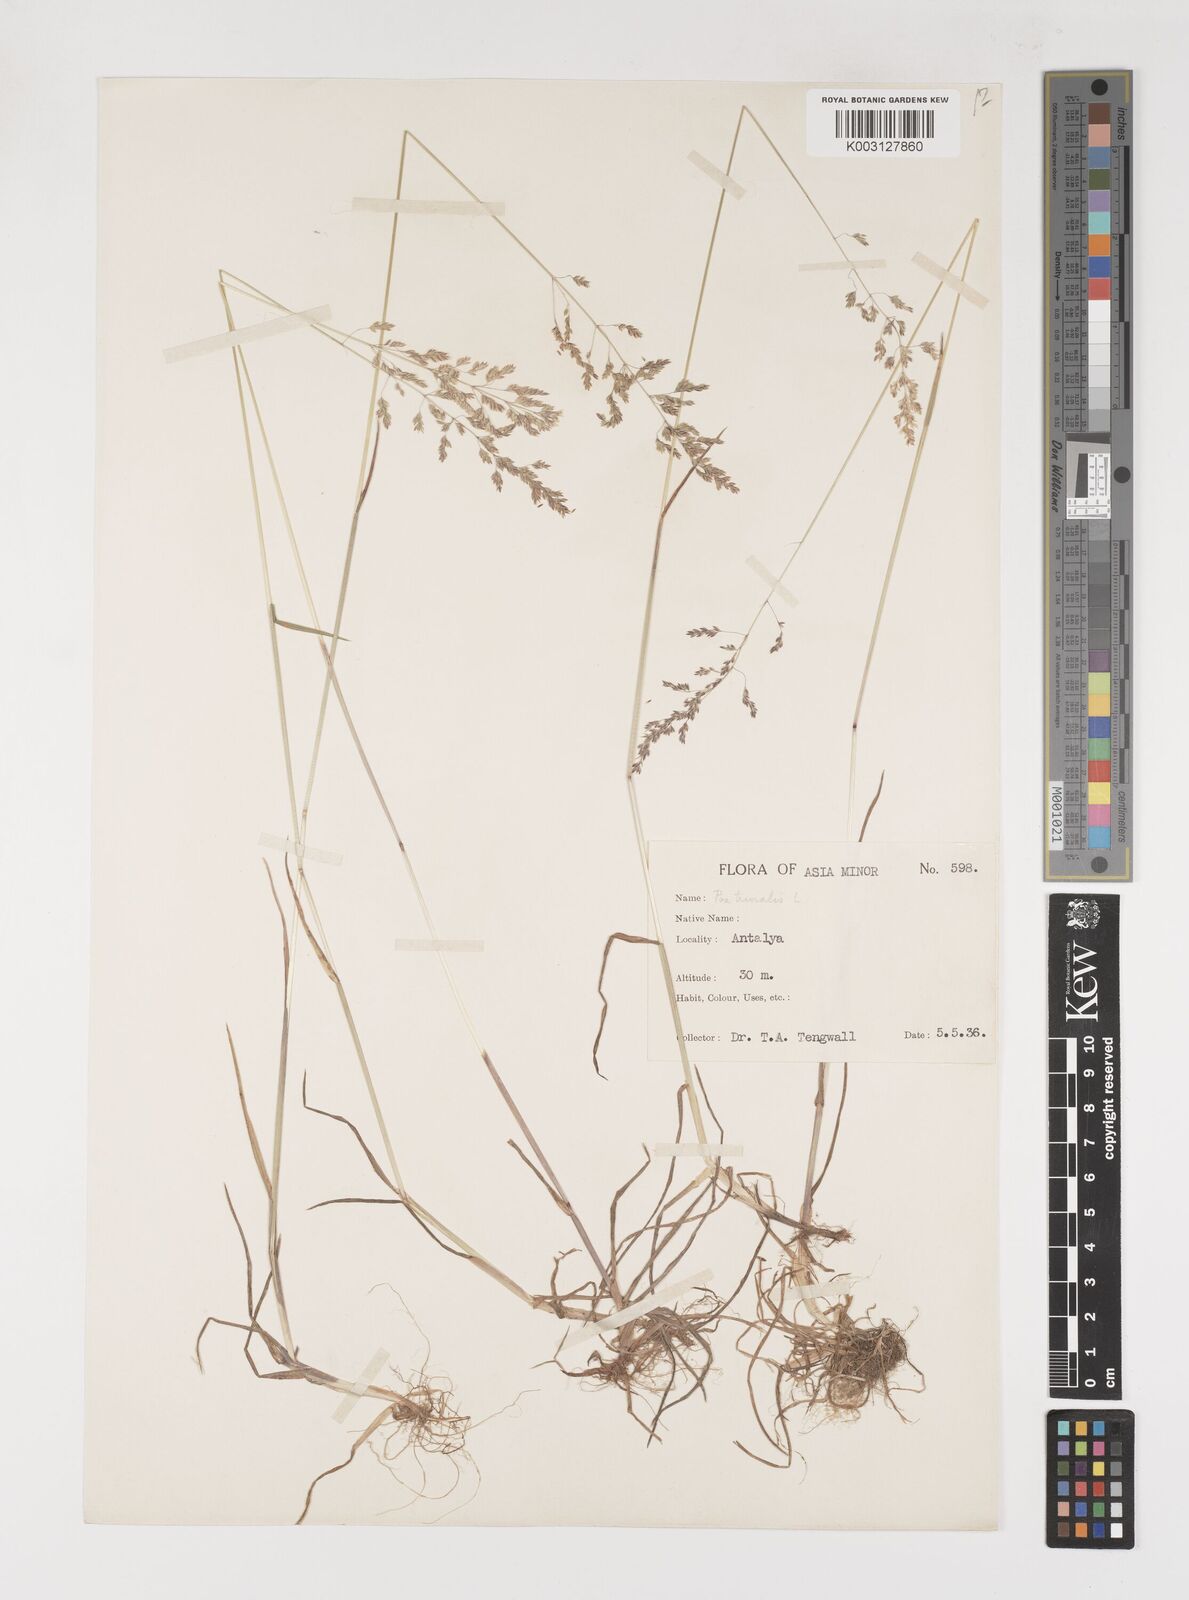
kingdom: Plantae
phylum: Tracheophyta
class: Liliopsida
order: Poales
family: Poaceae
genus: Poa
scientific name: Poa trivialis
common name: Rough bluegrass
